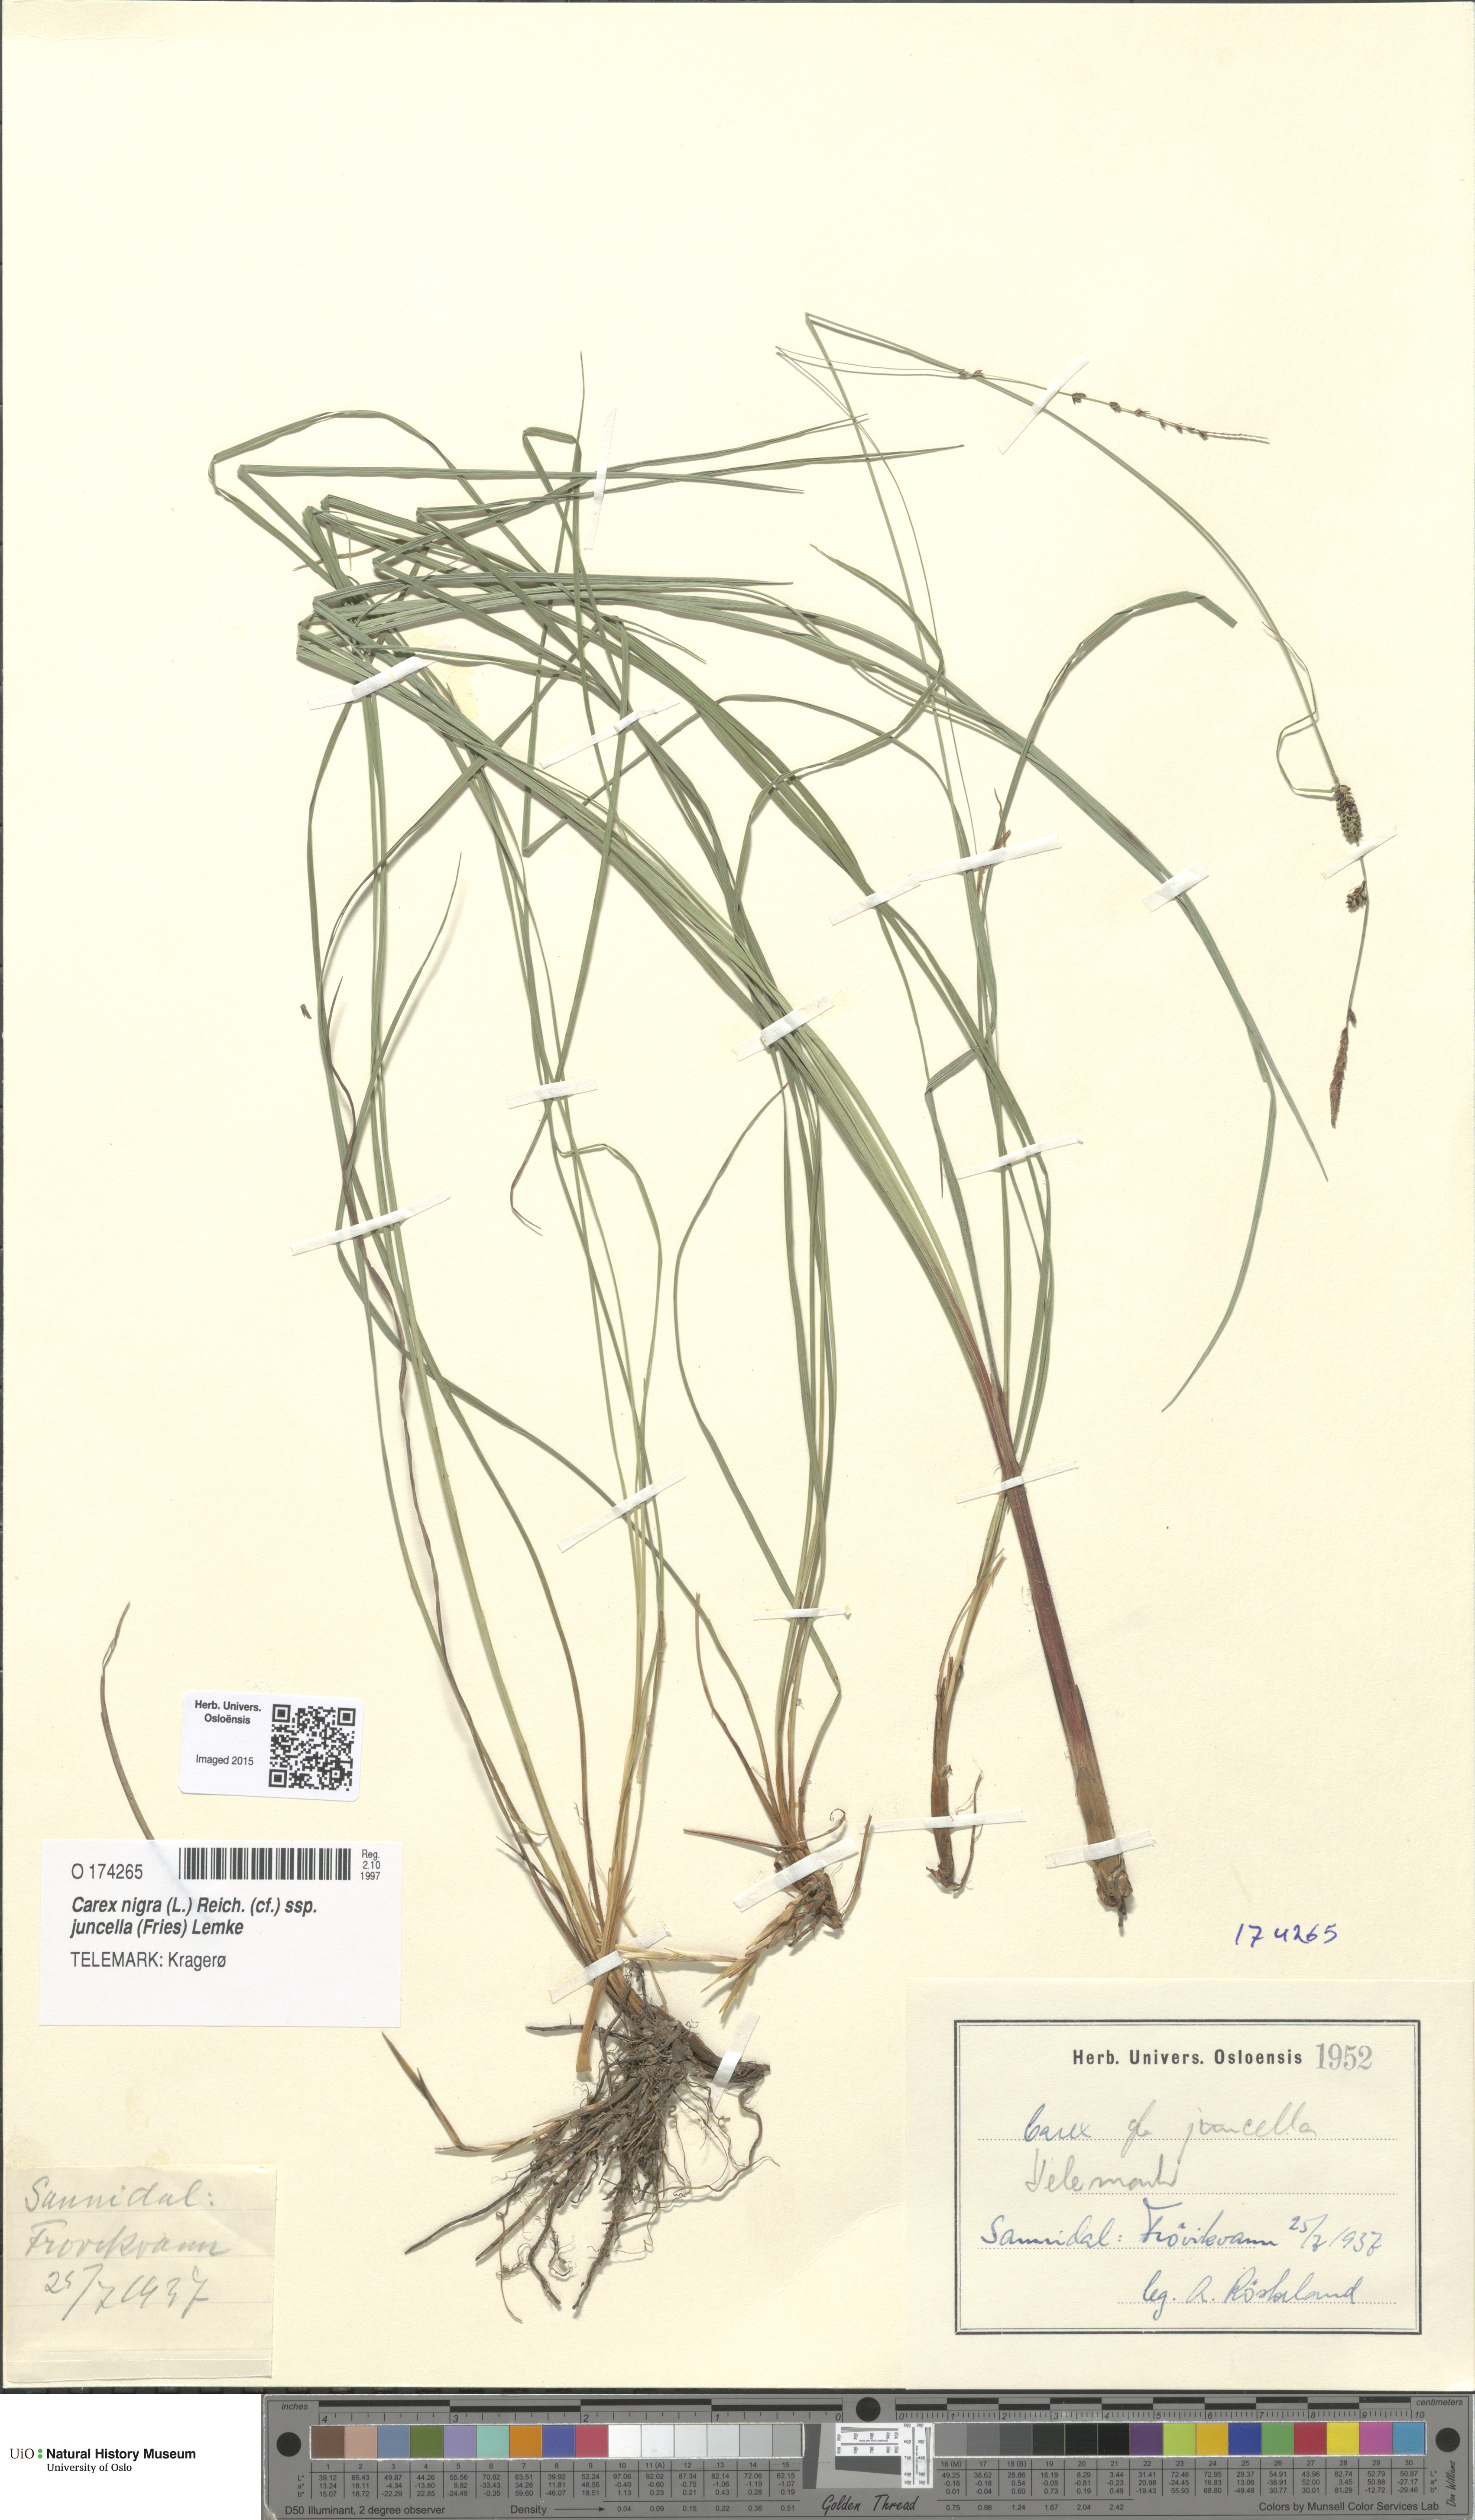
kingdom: Plantae
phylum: Tracheophyta
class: Liliopsida
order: Poales
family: Cyperaceae
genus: Carex
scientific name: Carex nigra
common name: Common sedge
